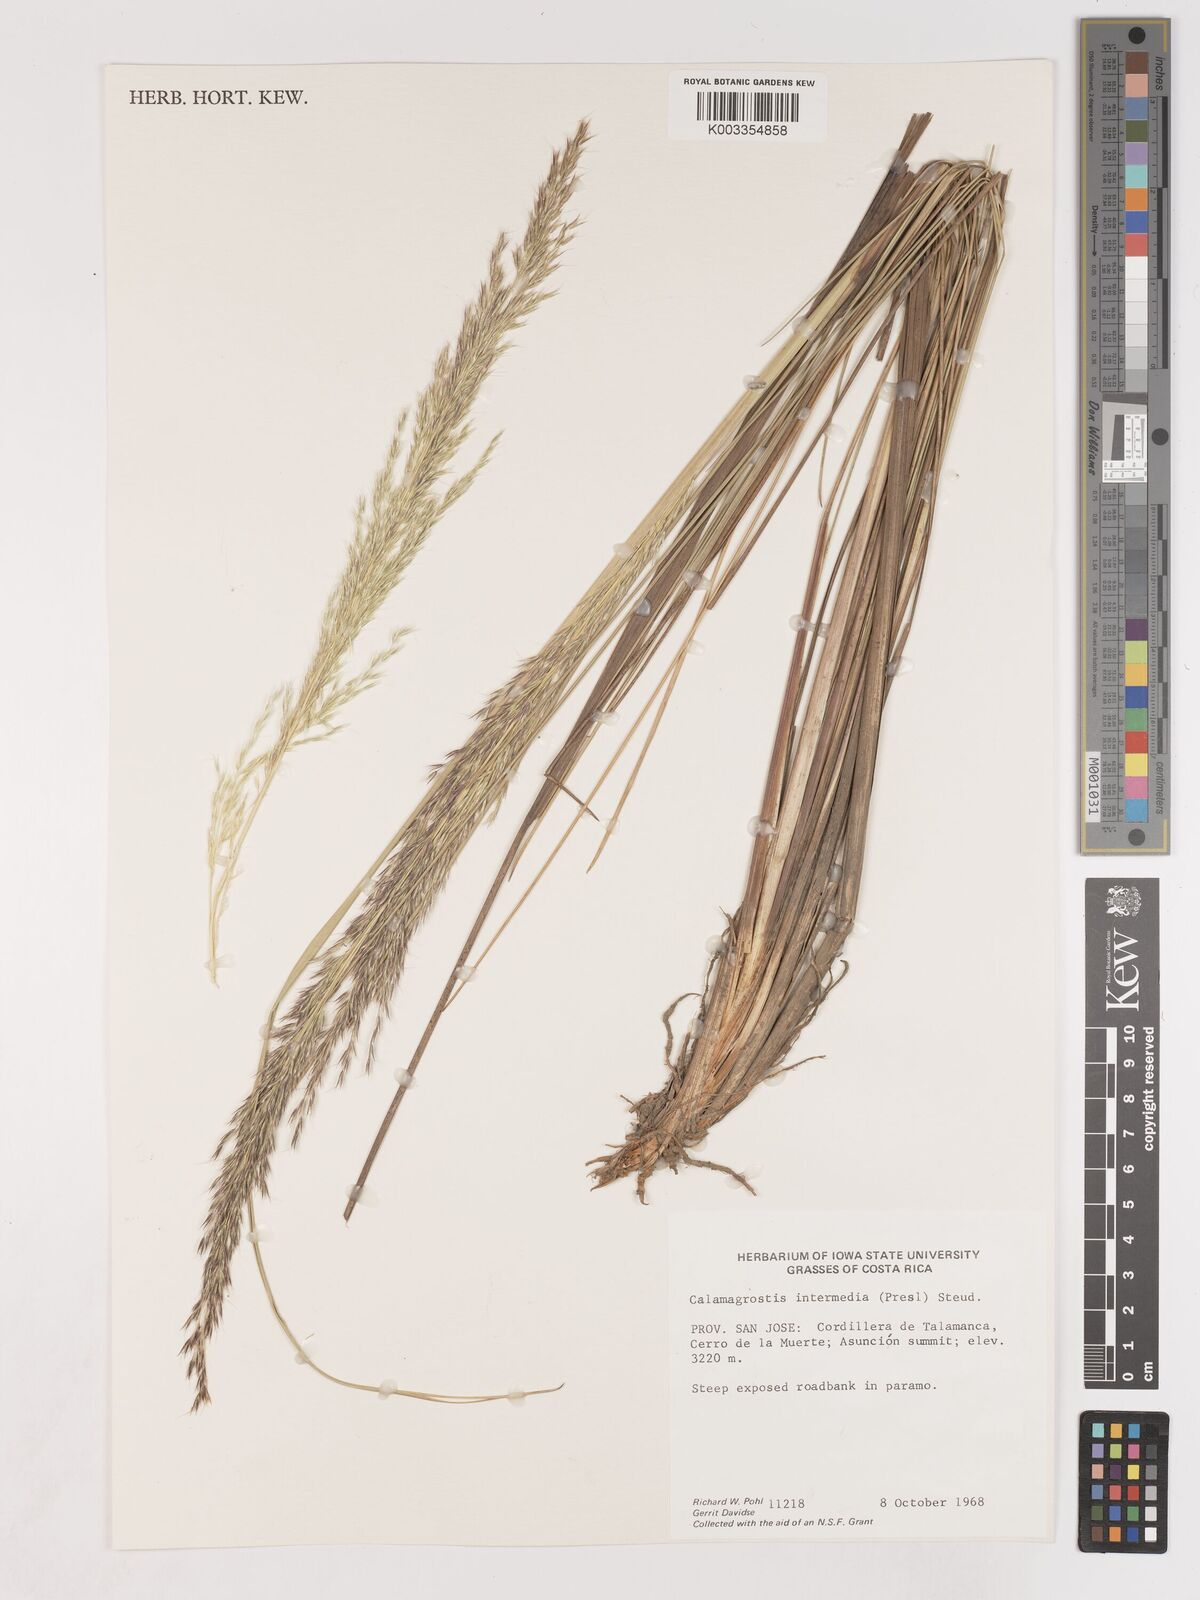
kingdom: Plantae
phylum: Tracheophyta
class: Liliopsida
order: Poales
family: Poaceae
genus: Cinnagrostis
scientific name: Cinnagrostis intermedia
